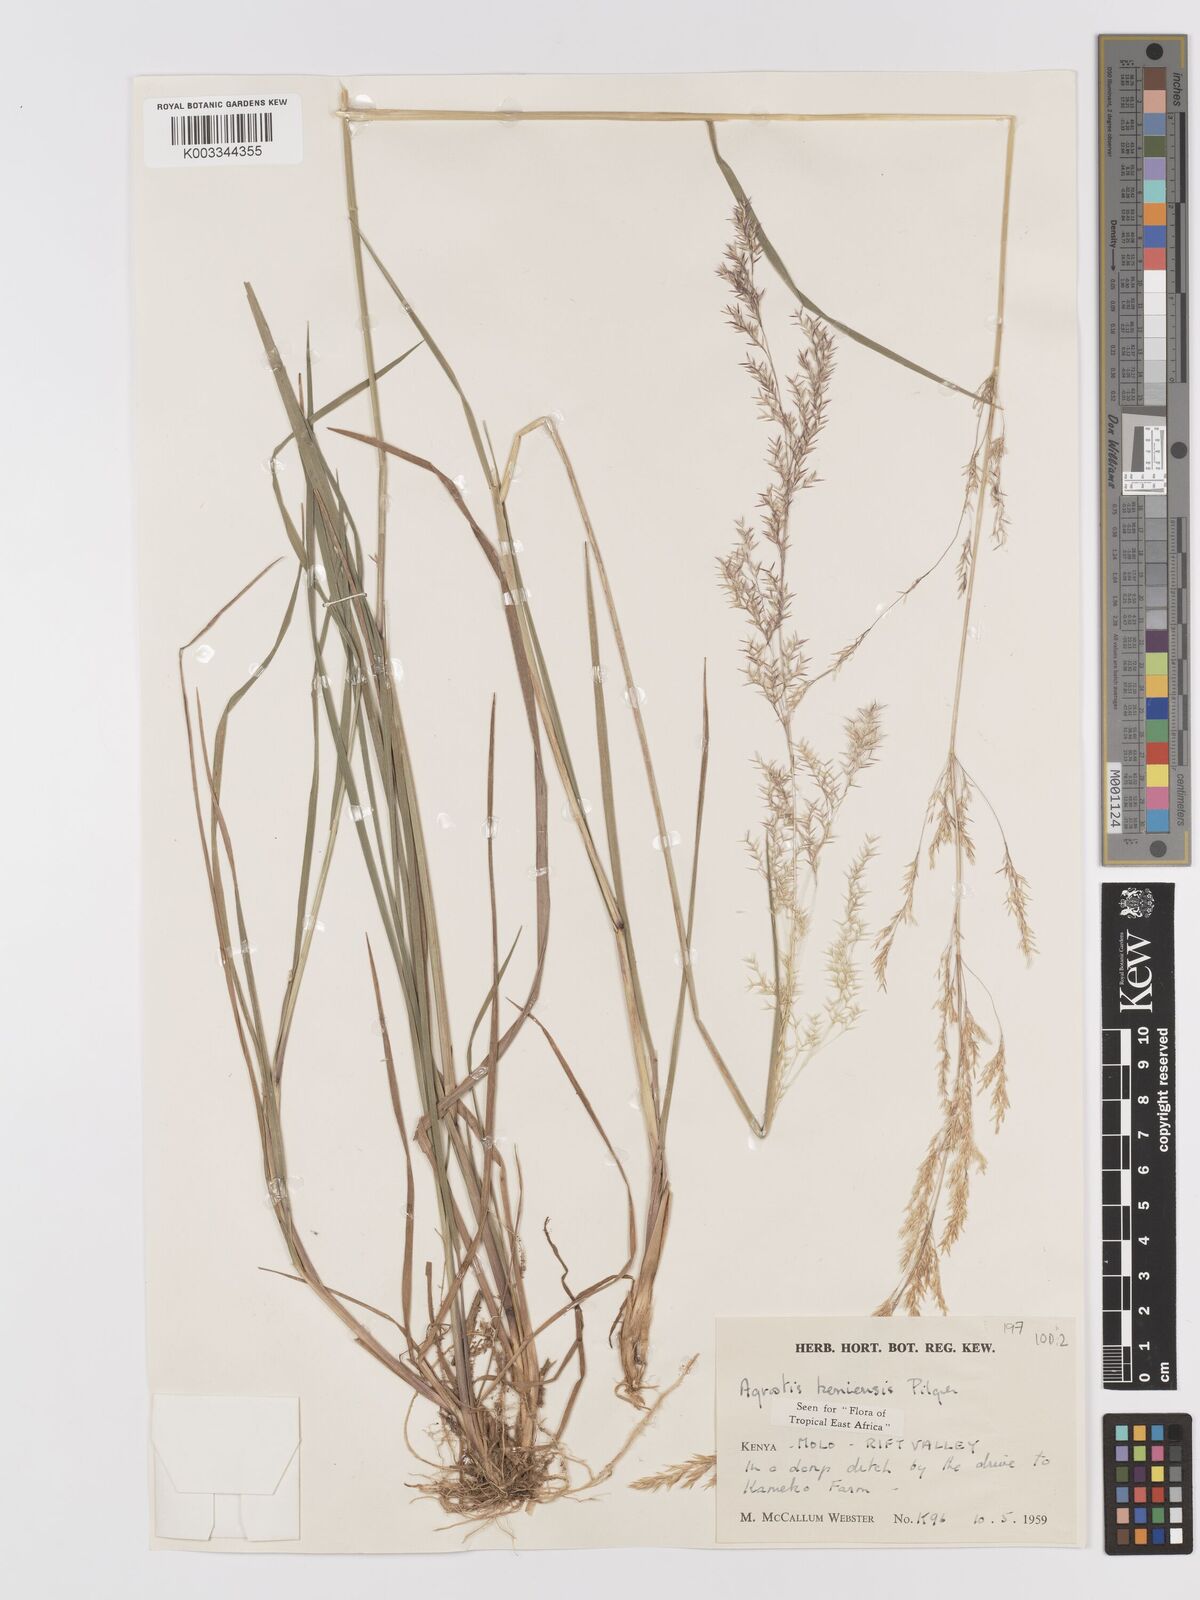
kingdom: Plantae
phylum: Tracheophyta
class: Liliopsida
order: Poales
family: Poaceae
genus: Agrostis
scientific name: Agrostis keniensis
